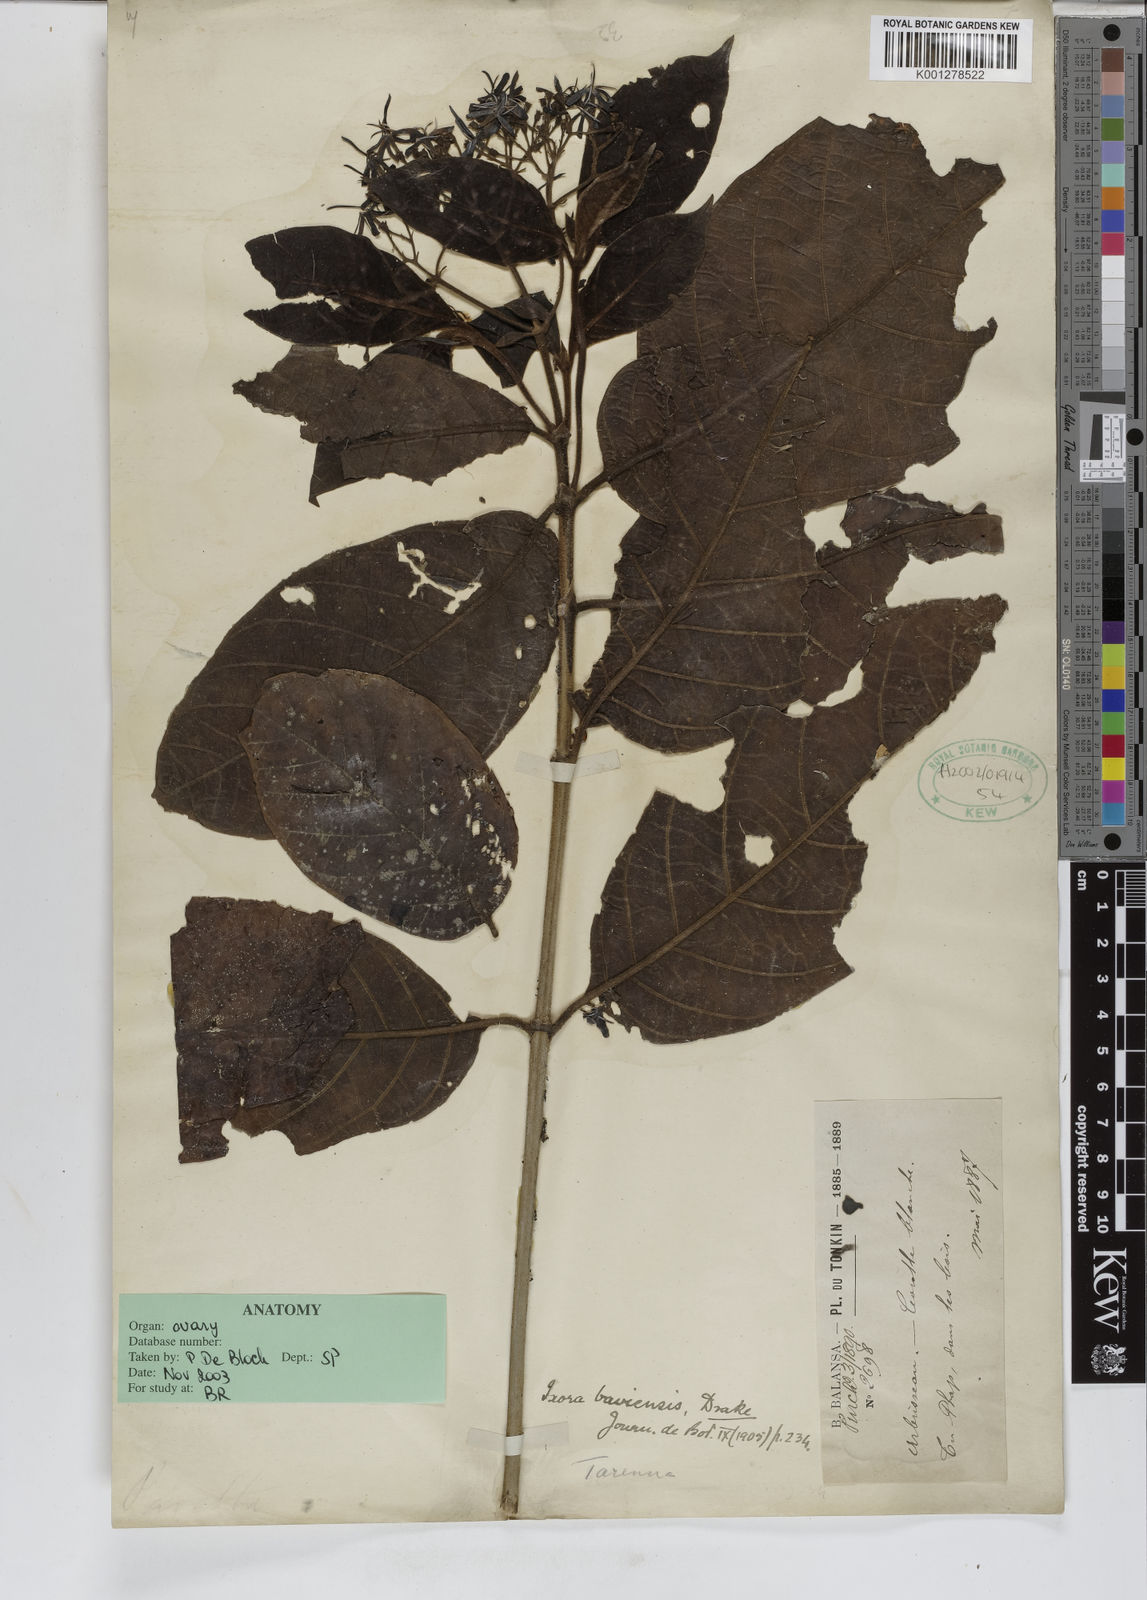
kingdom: Plantae
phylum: Tracheophyta
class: Magnoliopsida
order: Gentianales
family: Rubiaceae
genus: Tarenna
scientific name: Tarenna baviensis
